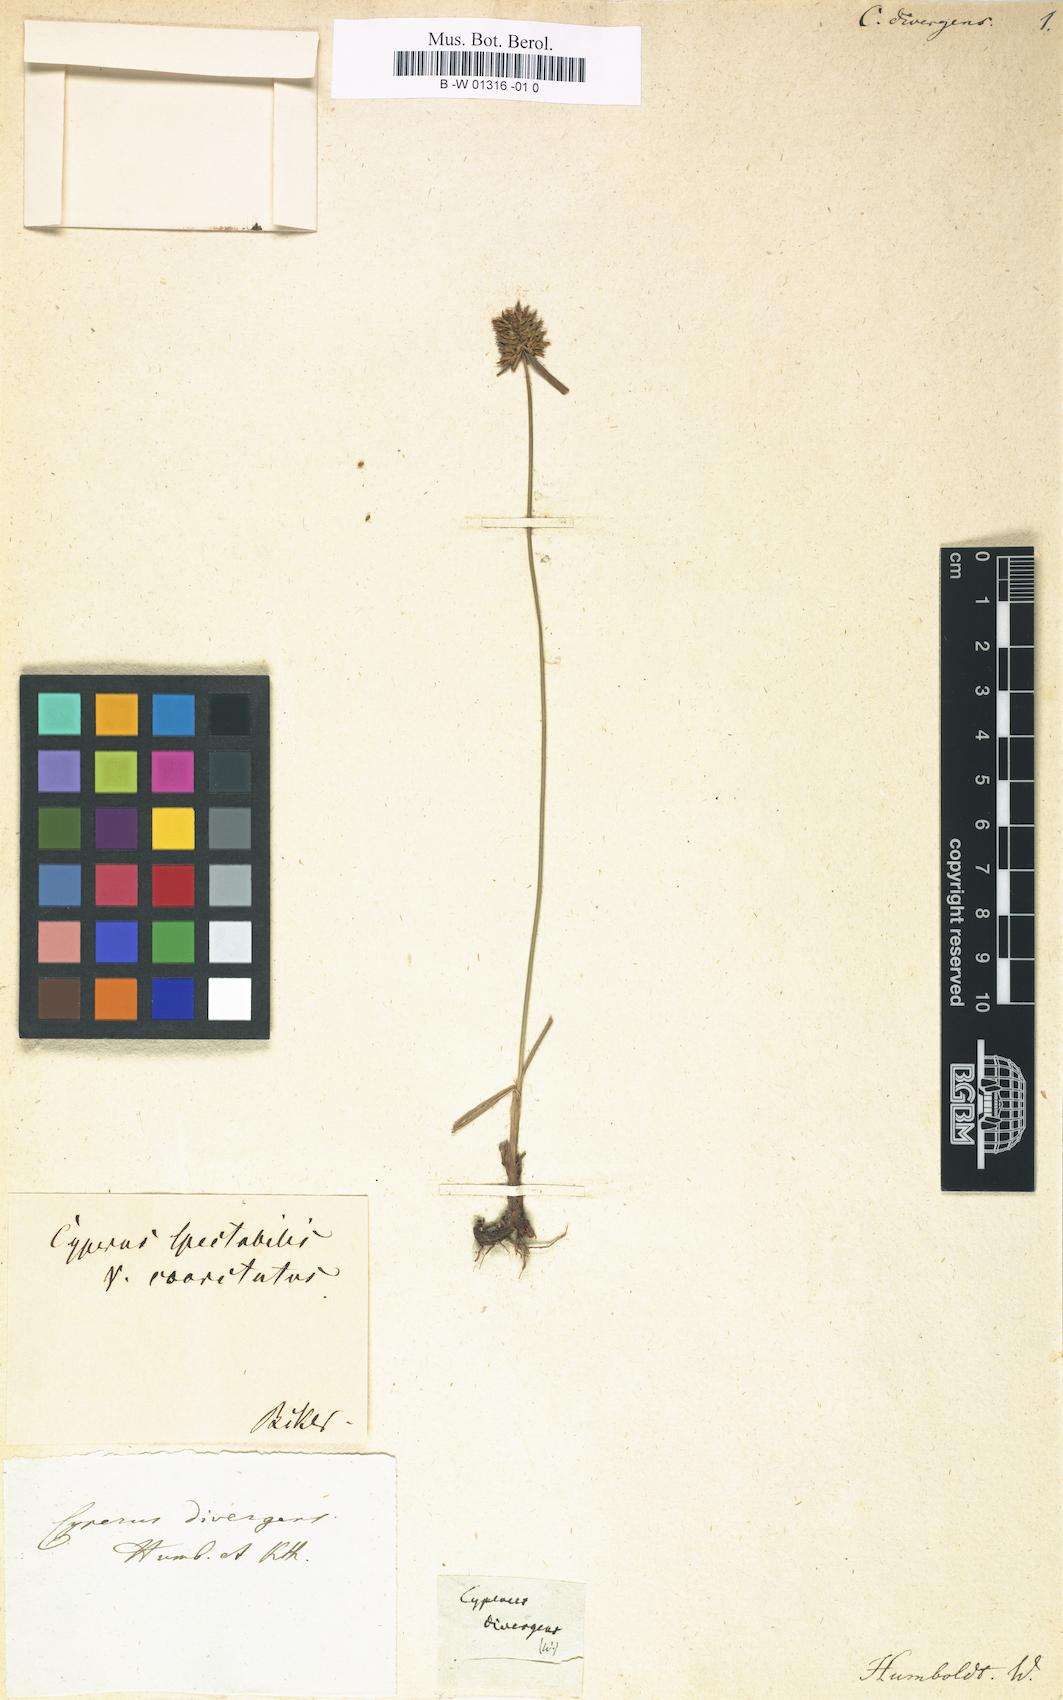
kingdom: Plantae
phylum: Tracheophyta
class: Liliopsida
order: Poales
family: Cyperaceae
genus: Cyperus
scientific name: Cyperus manimae
